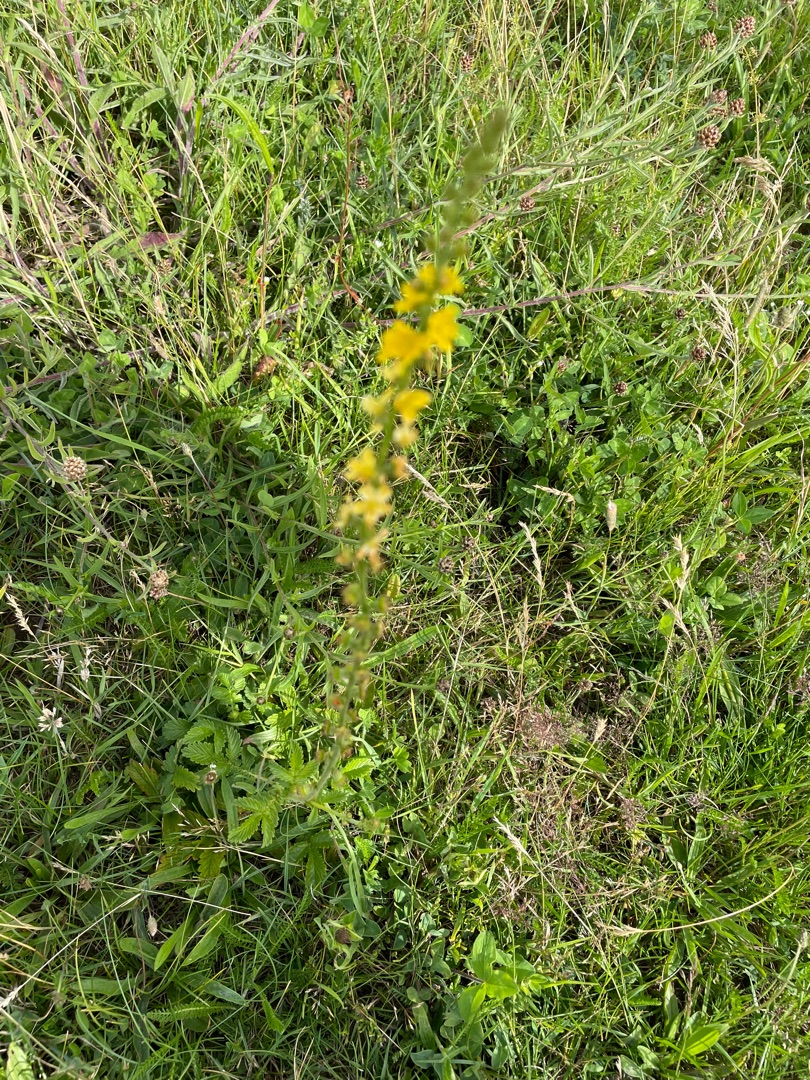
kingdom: Plantae
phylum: Tracheophyta
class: Magnoliopsida
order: Rosales
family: Rosaceae
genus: Agrimonia
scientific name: Agrimonia
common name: Agermåneslægten
